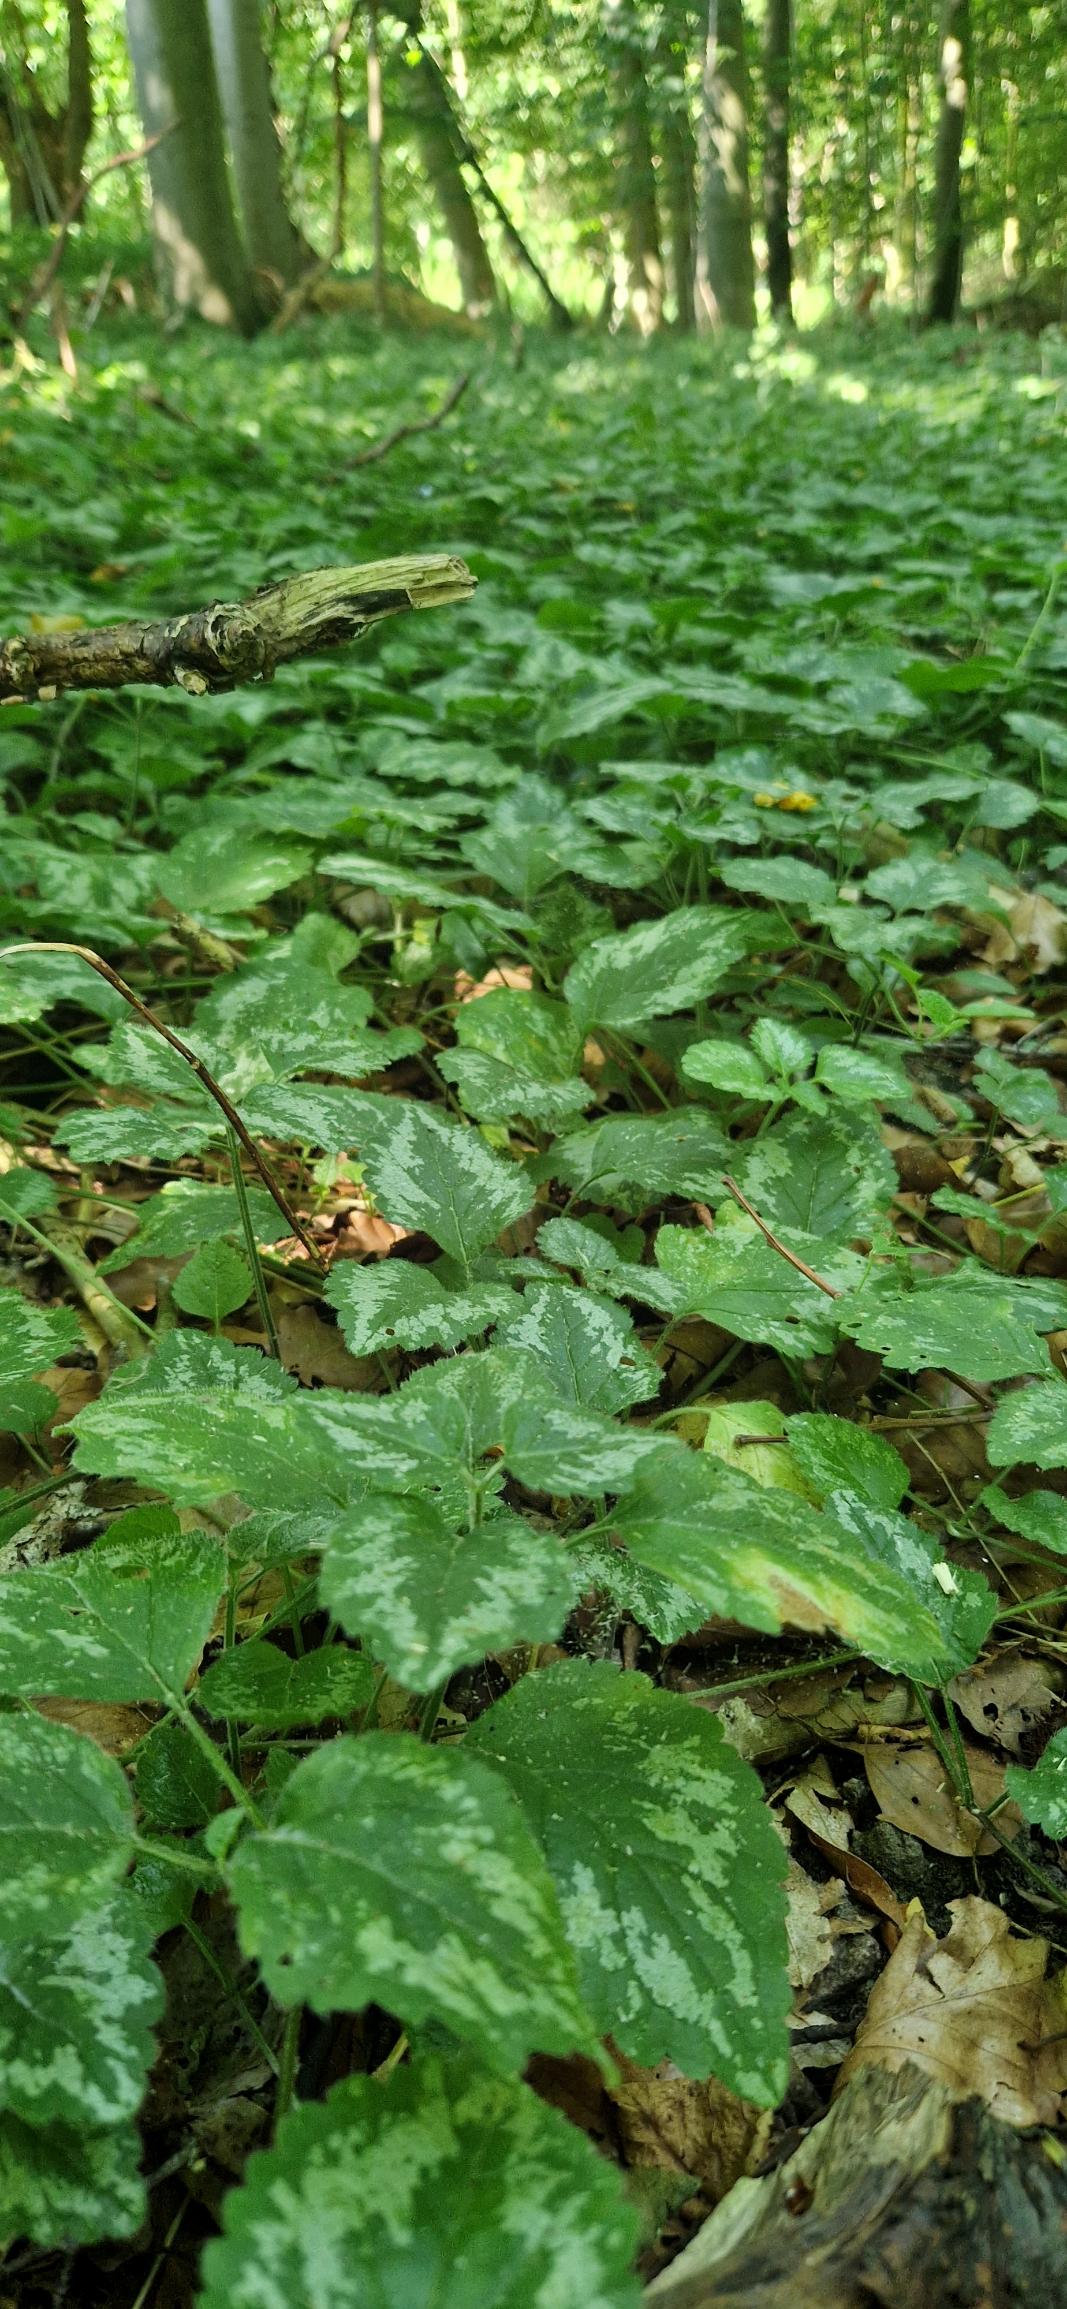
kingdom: Plantae
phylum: Tracheophyta
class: Magnoliopsida
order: Lamiales
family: Lamiaceae
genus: Lamium
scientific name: Lamium galeobdolon
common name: Have-guldnælde
